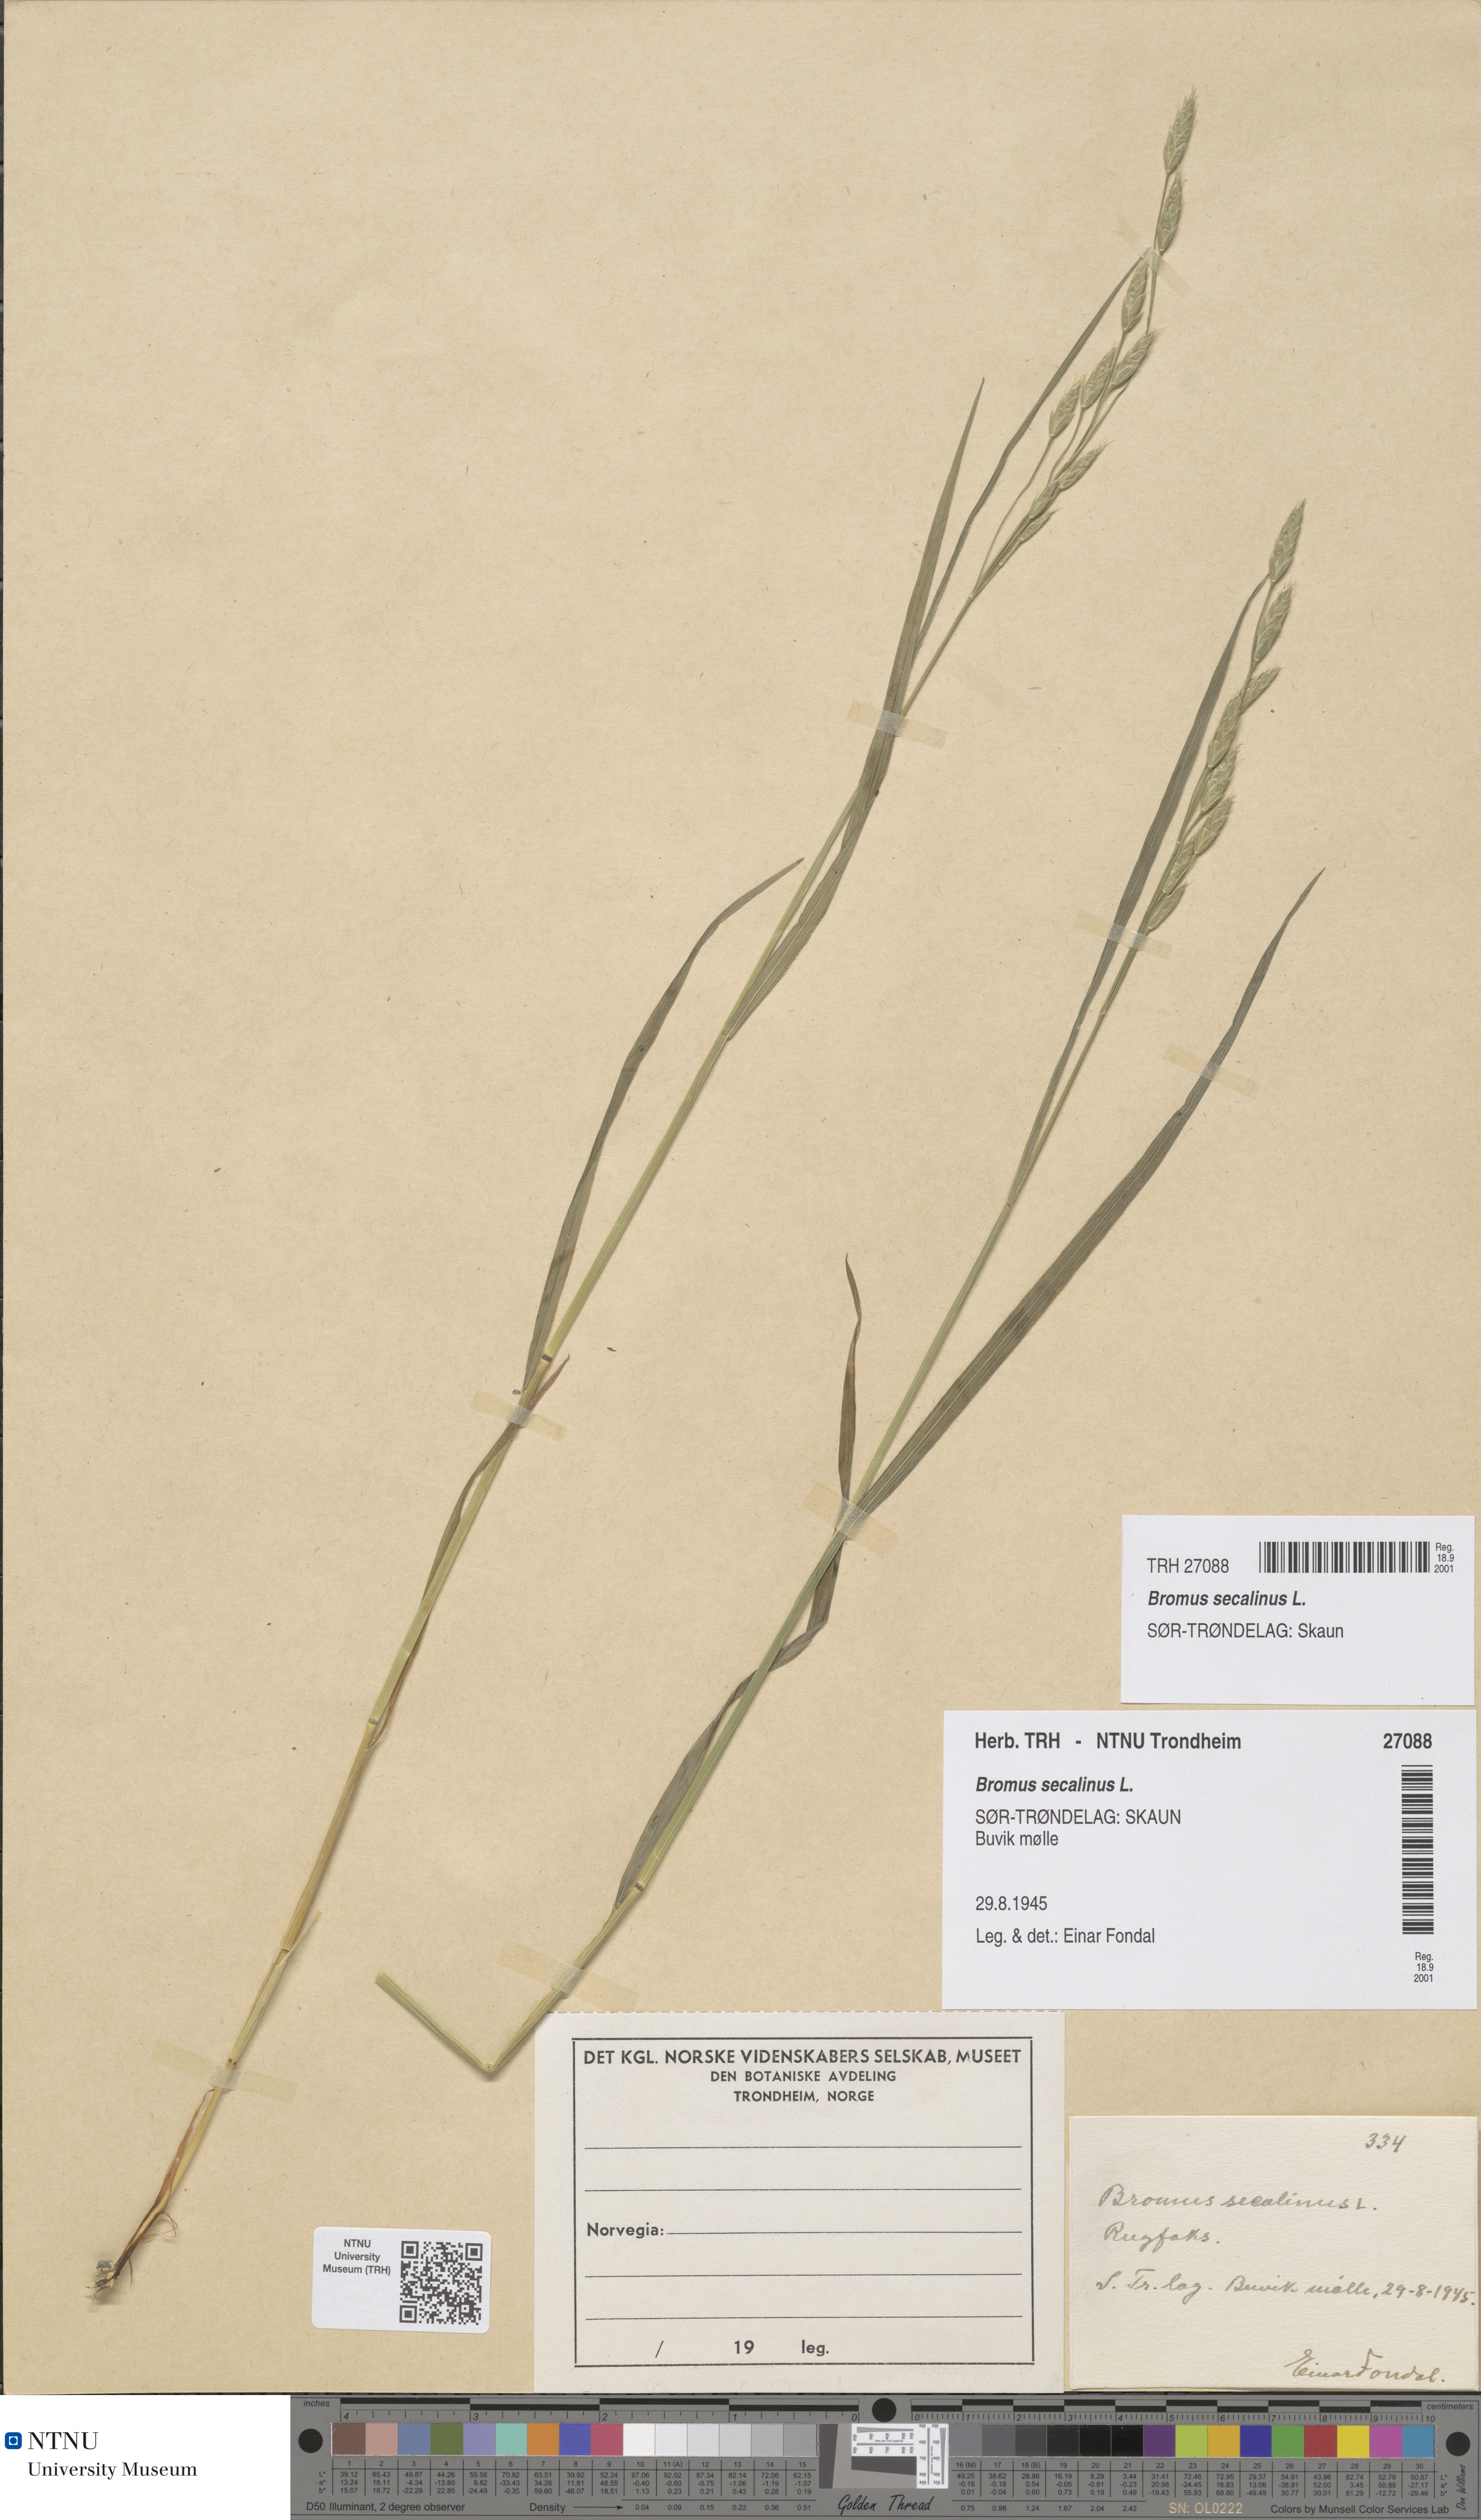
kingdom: Plantae
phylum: Tracheophyta
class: Liliopsida
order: Poales
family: Poaceae
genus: Bromus
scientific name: Bromus secalinus
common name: Rye brome
